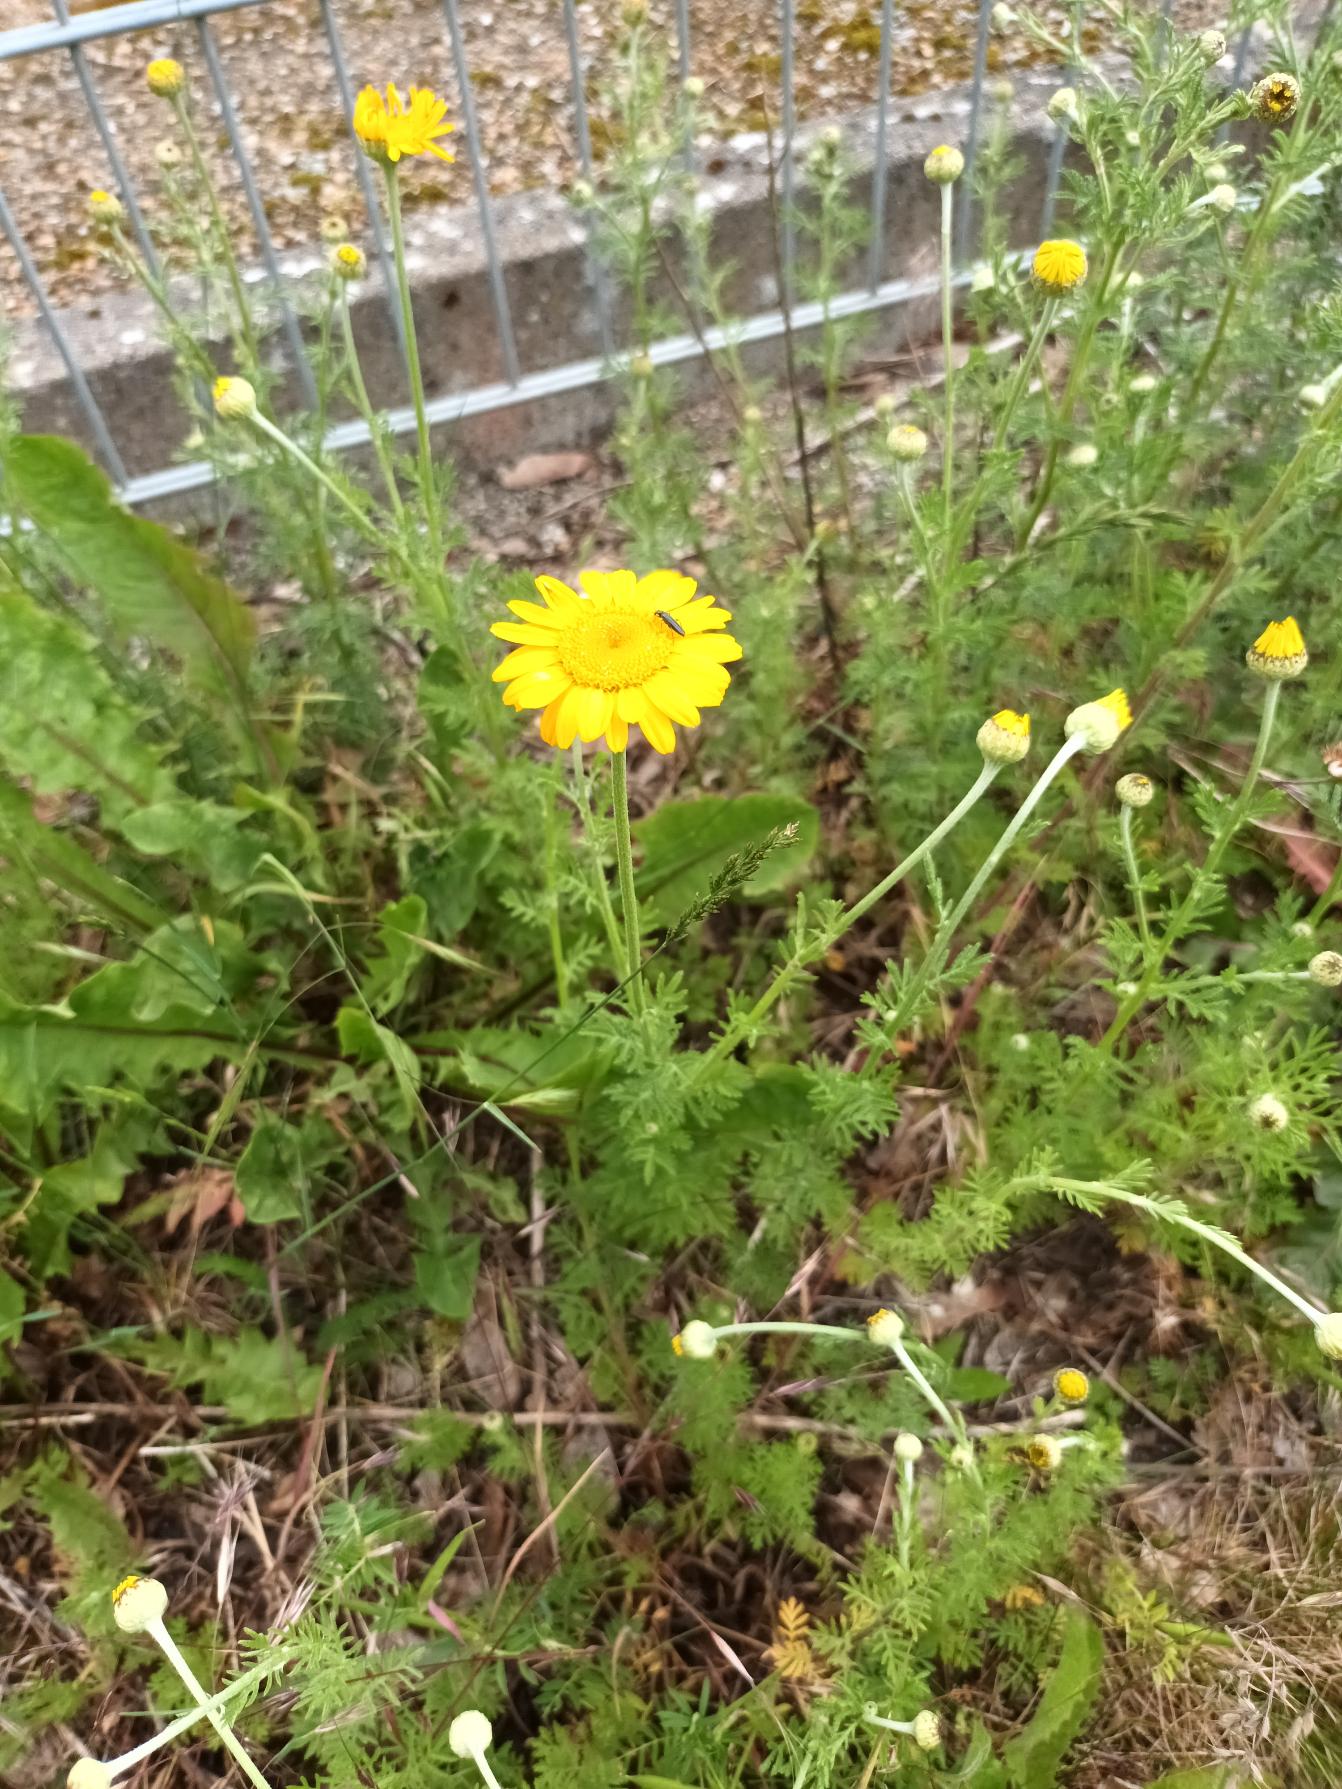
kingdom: Plantae
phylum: Tracheophyta
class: Magnoliopsida
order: Asterales
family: Asteraceae
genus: Cota
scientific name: Cota tinctoria
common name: Farve-gåseurt
